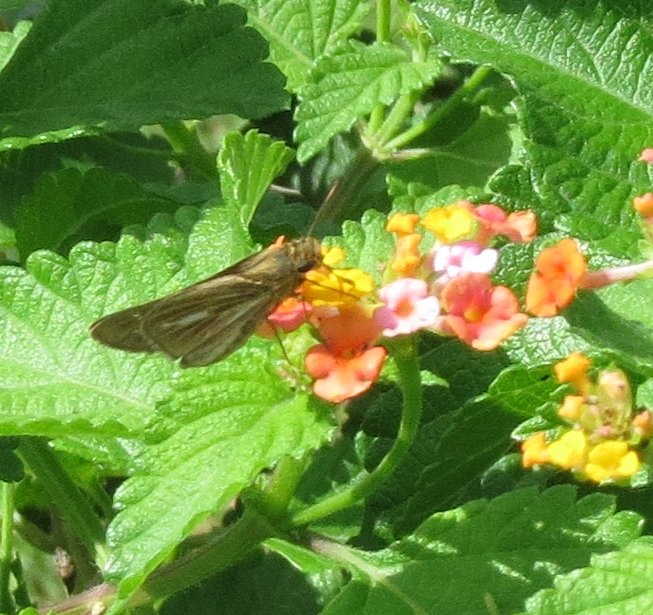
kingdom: Animalia
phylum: Arthropoda
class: Insecta
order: Lepidoptera
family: Hesperiidae
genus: Panoquina
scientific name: Panoquina panoquin
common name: Salt Marsh Skipper
